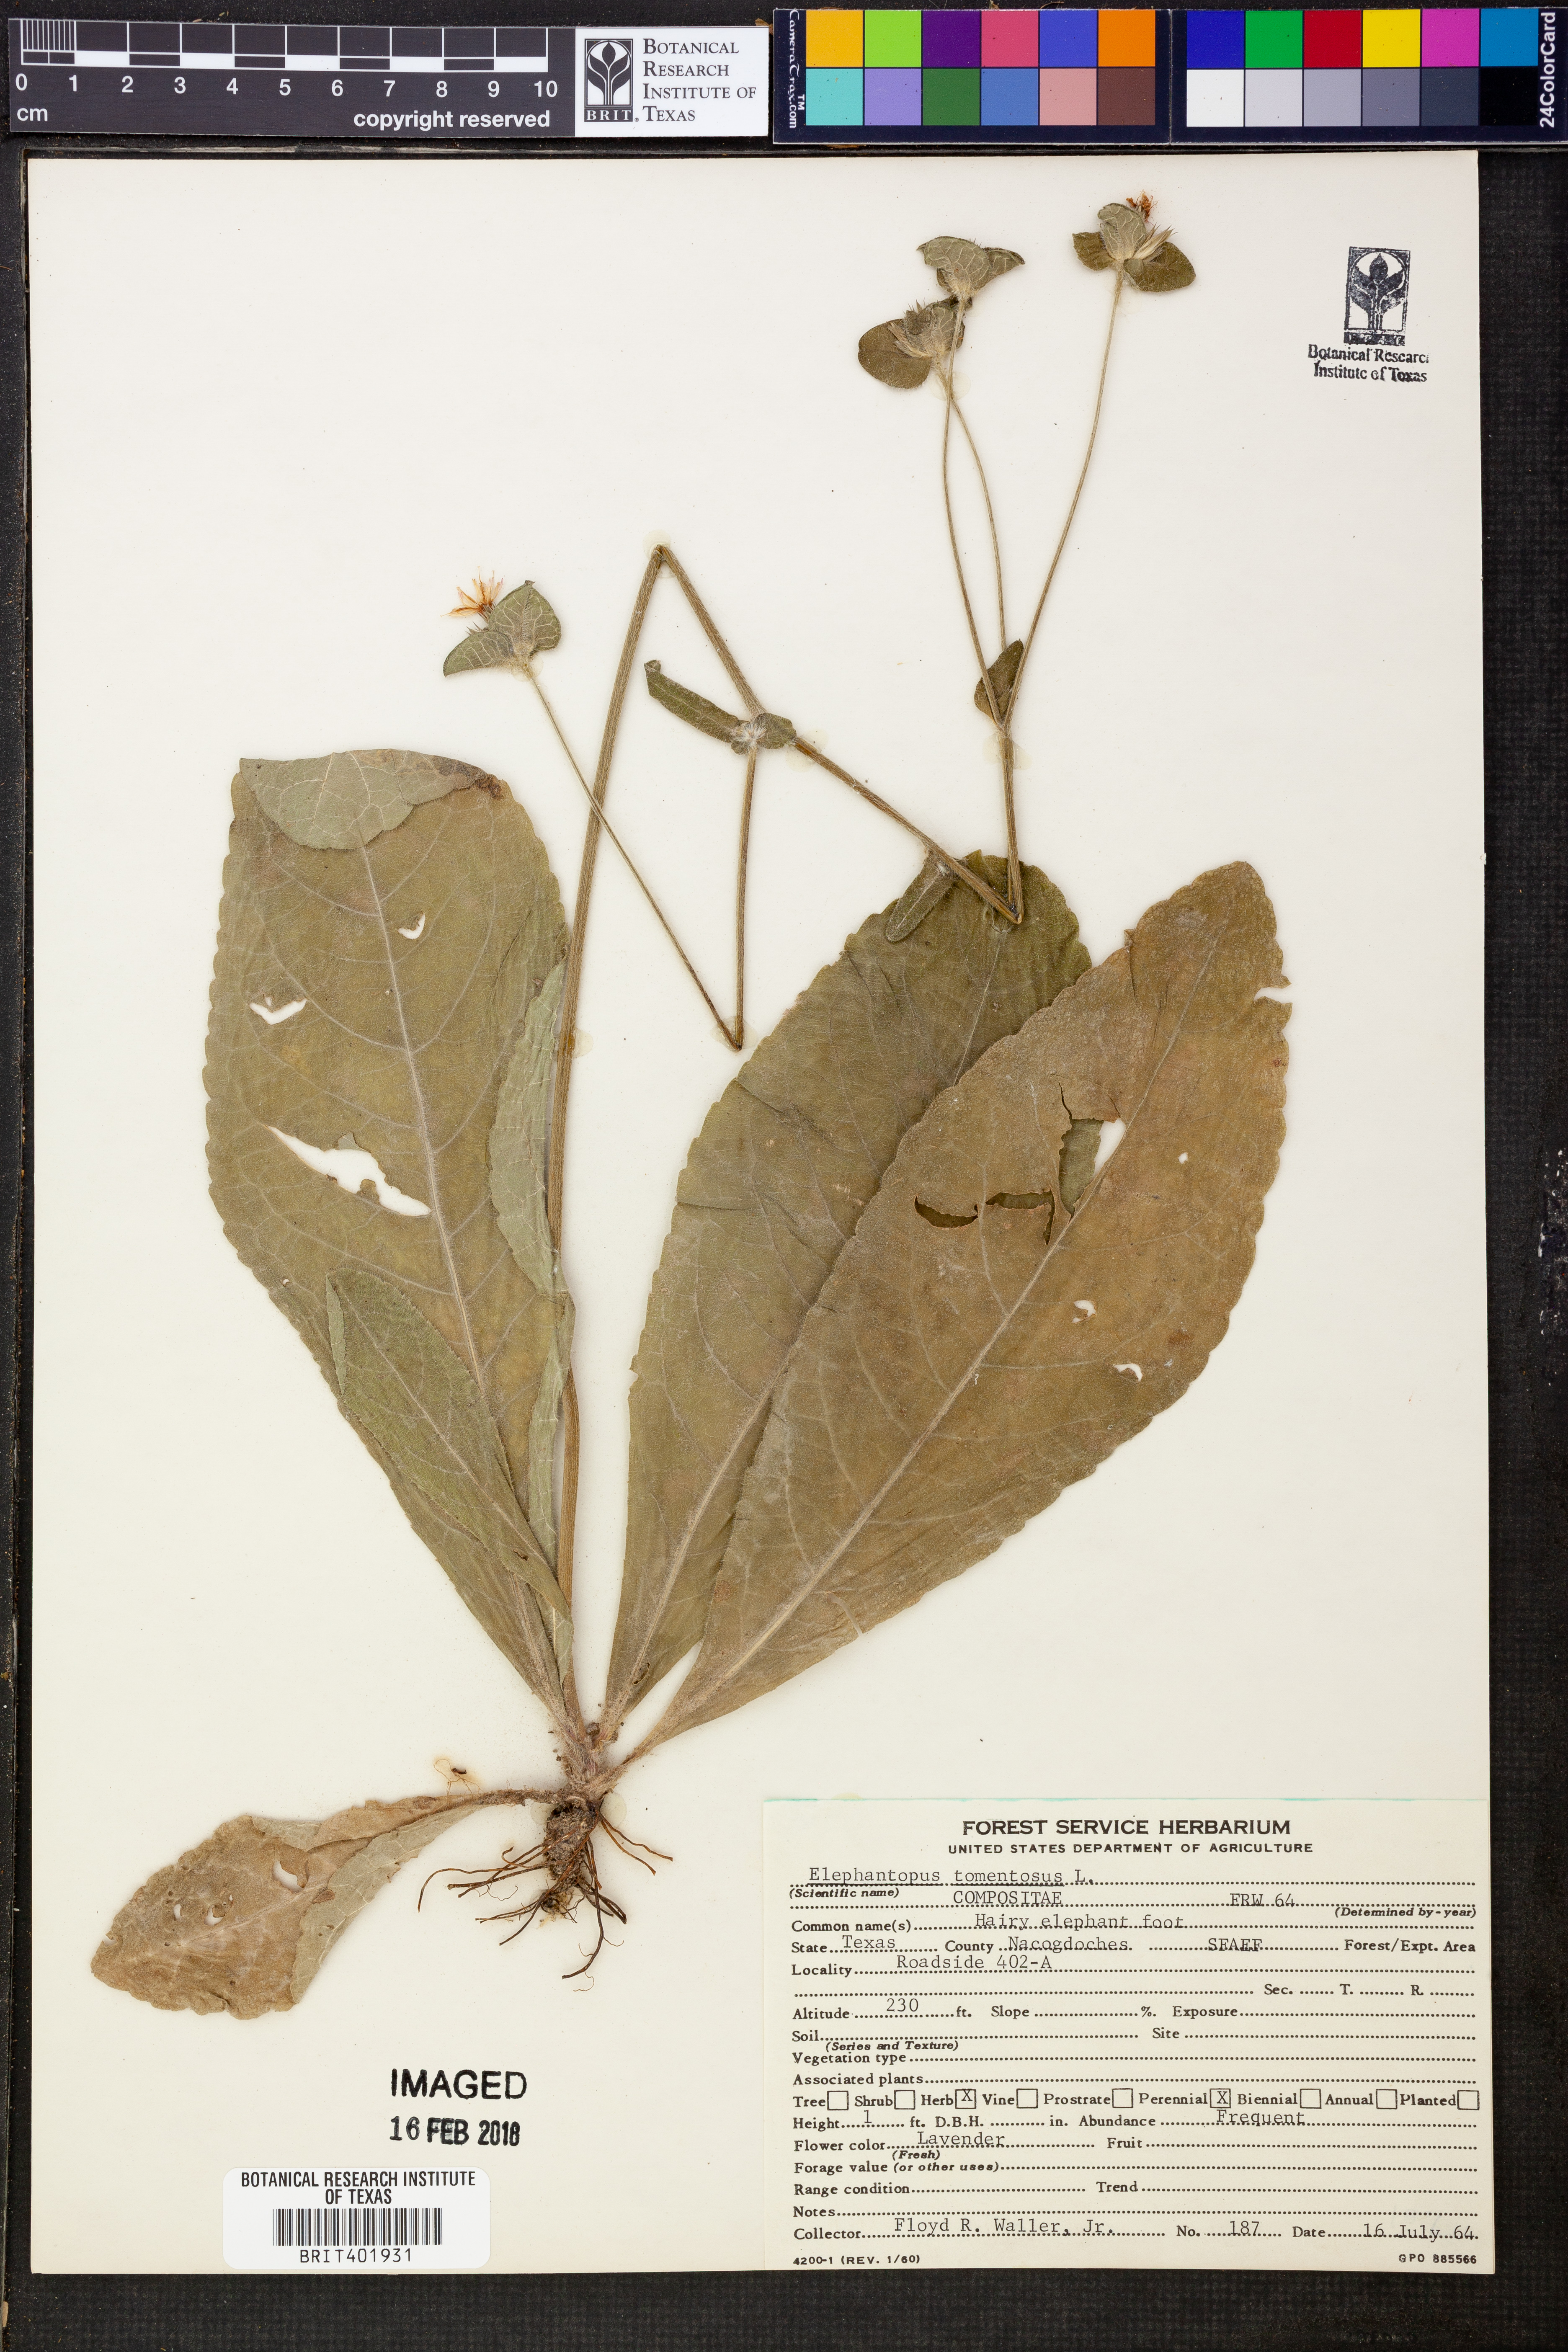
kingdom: Plantae
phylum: Tracheophyta
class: Magnoliopsida
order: Asterales
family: Asteraceae
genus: Elephantopus
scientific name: Elephantopus tomentosus
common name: Tobacco-weed
